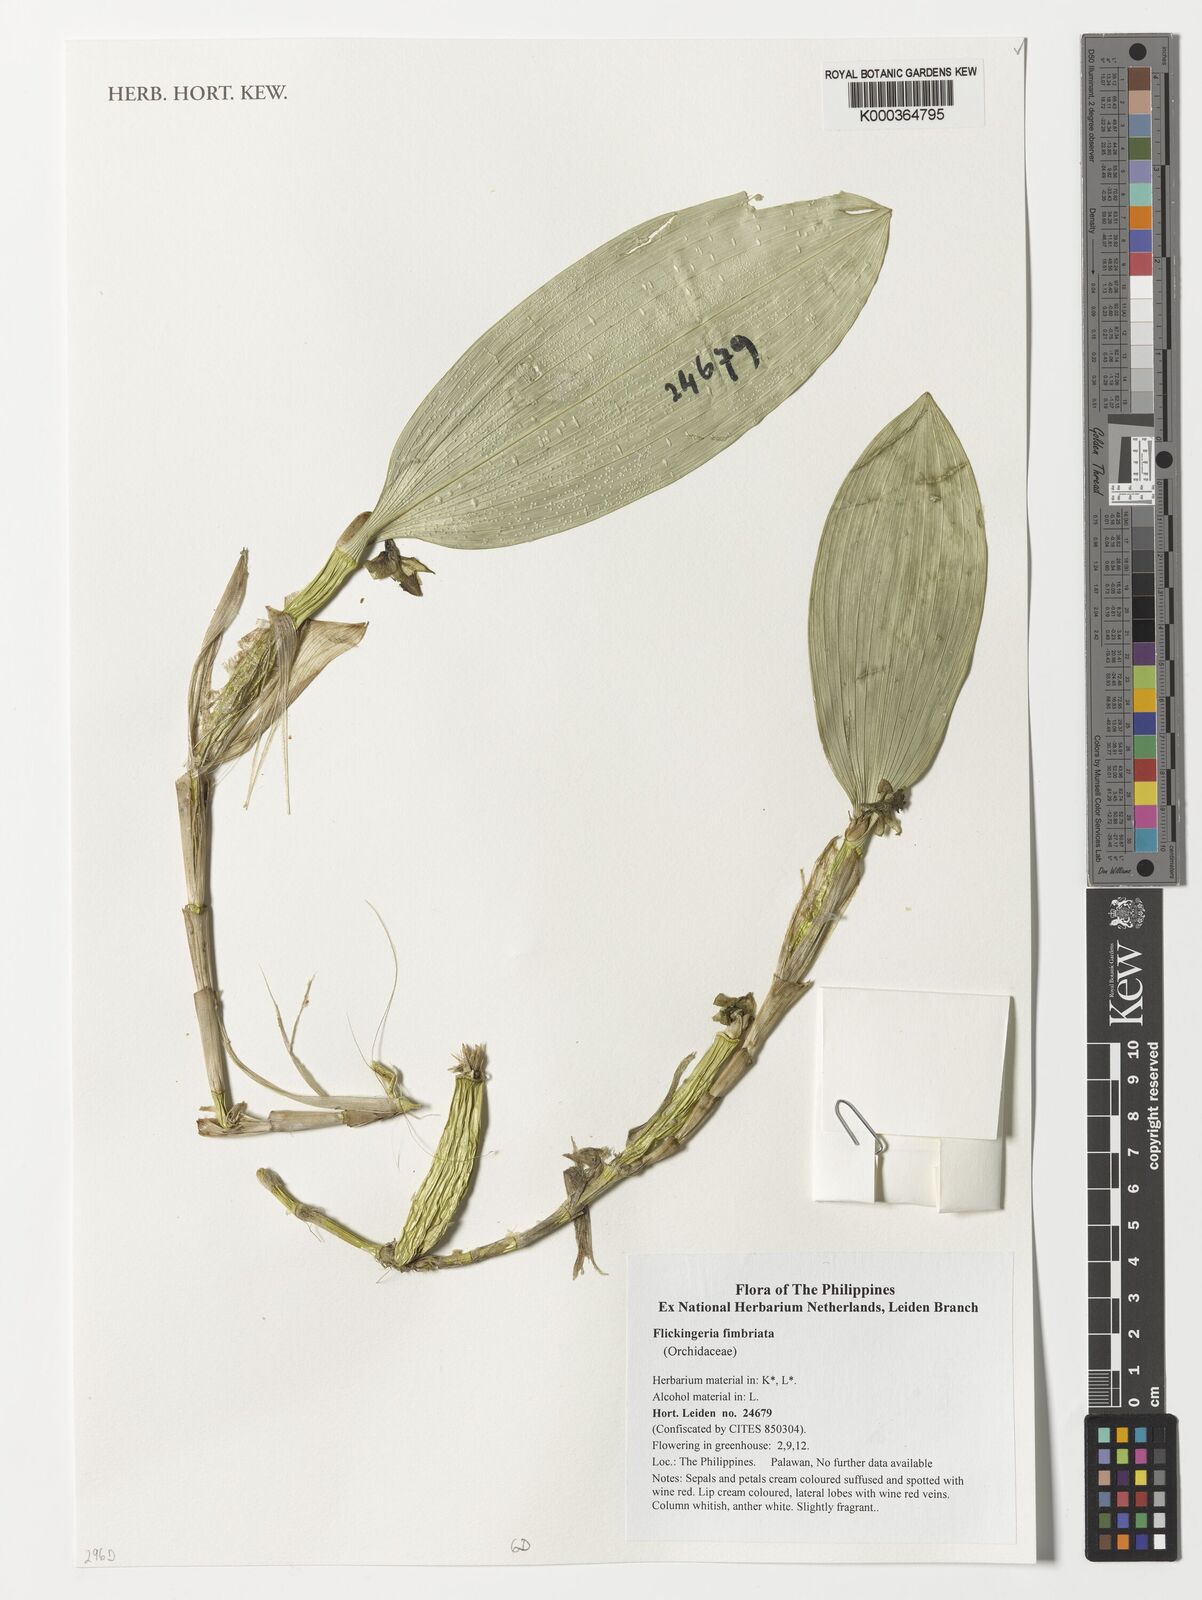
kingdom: Plantae
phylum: Tracheophyta
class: Liliopsida
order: Asparagales
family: Orchidaceae
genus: Dendrobium
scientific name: Dendrobium plicatile
